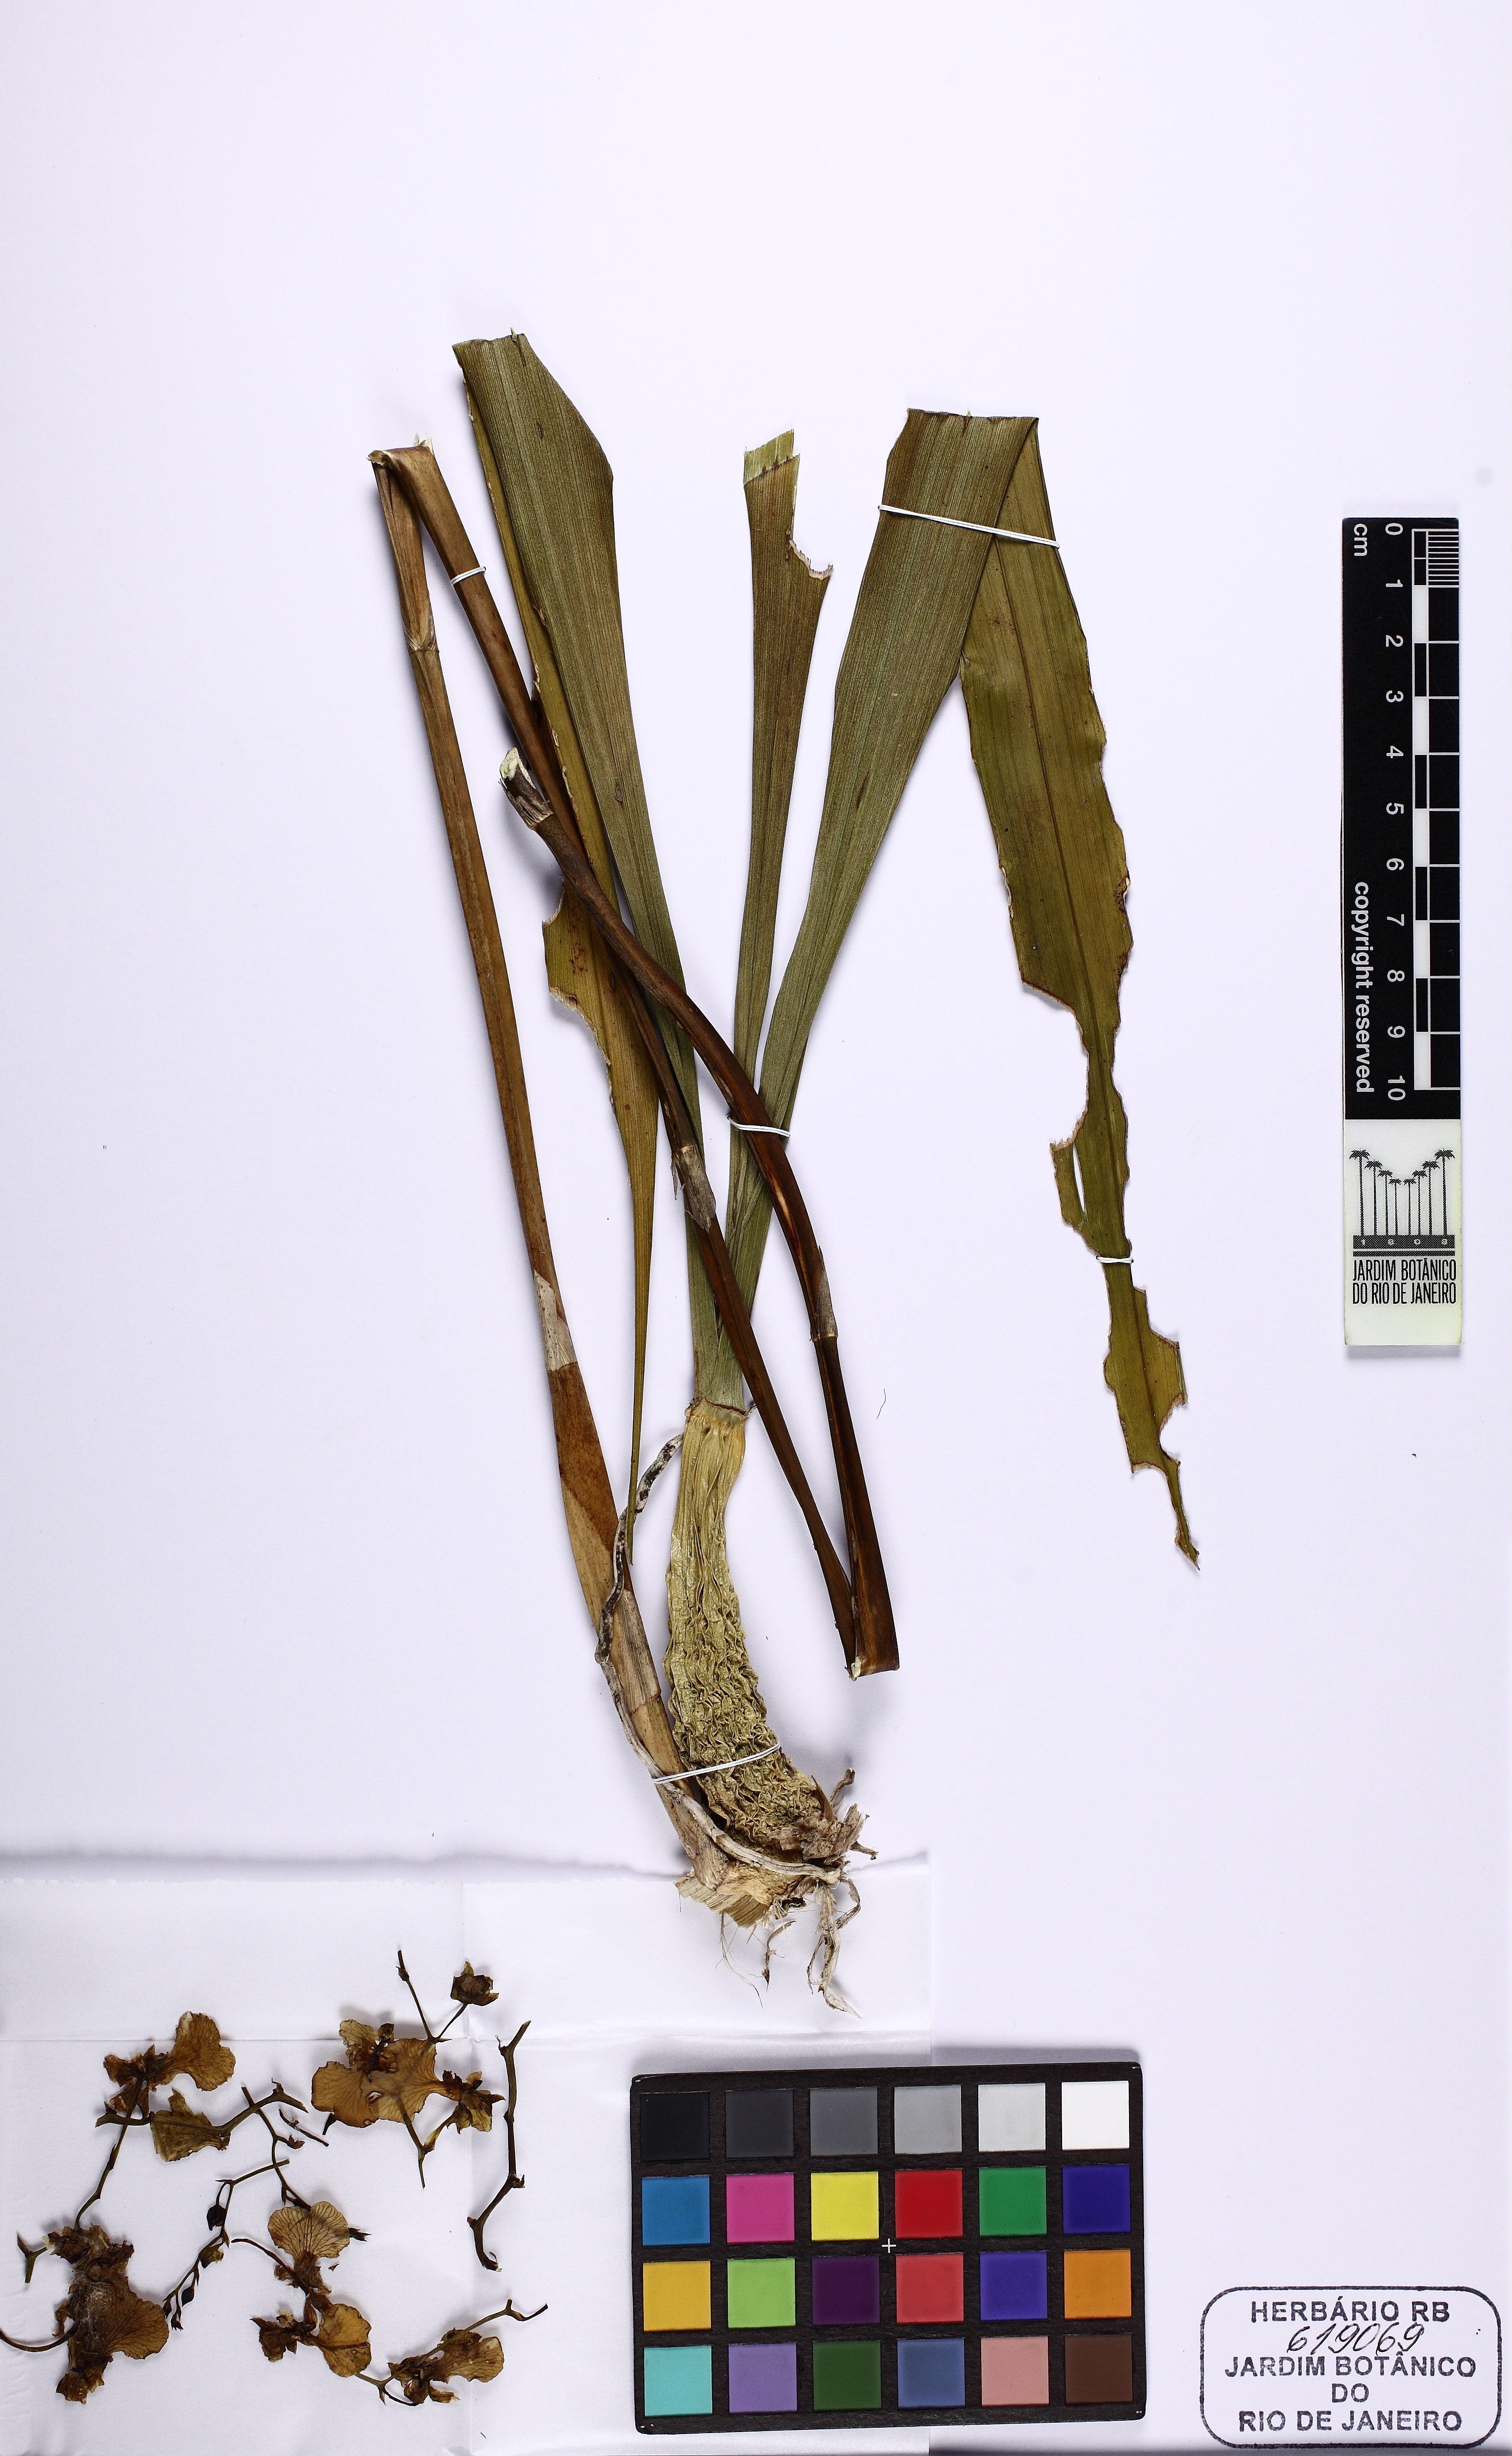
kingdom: Plantae
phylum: Tracheophyta
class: Liliopsida
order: Asparagales
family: Orchidaceae
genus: Gomesa
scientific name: Gomesa ramosa
